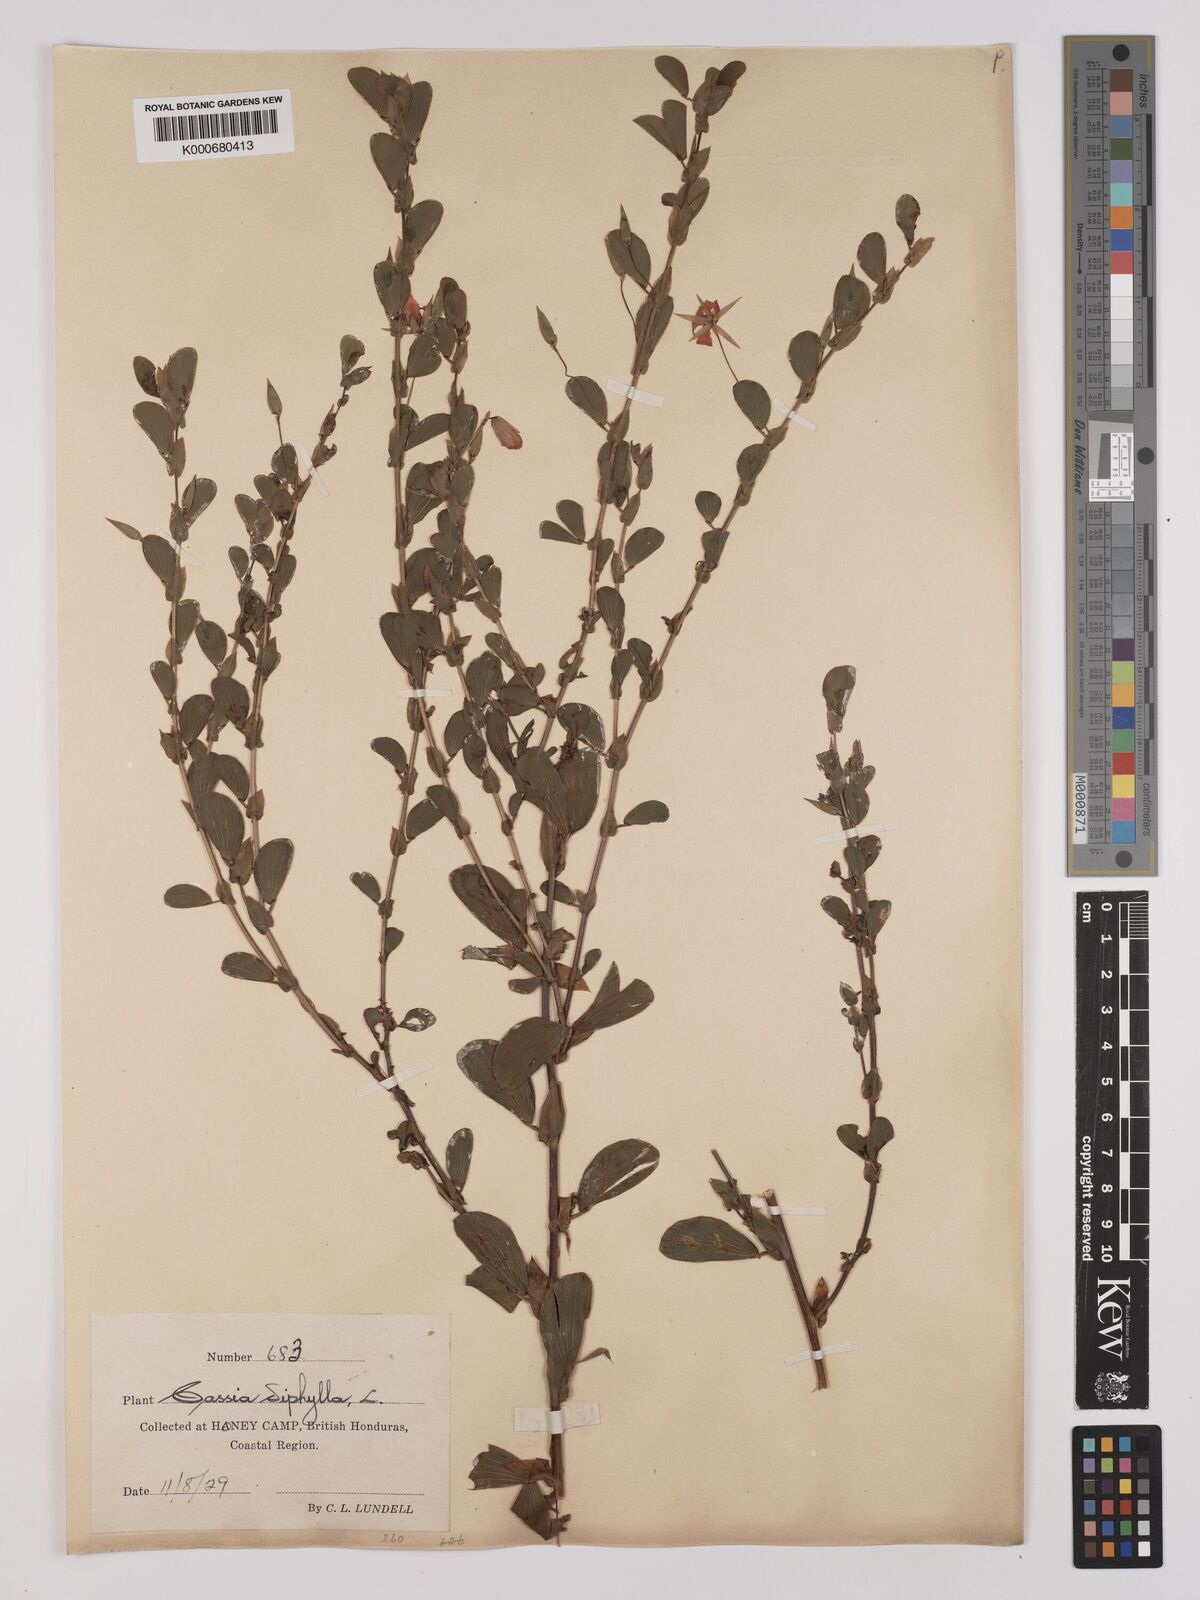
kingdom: Plantae
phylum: Tracheophyta
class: Magnoliopsida
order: Fabales
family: Fabaceae
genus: Chamaecrista
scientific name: Chamaecrista diphylla
